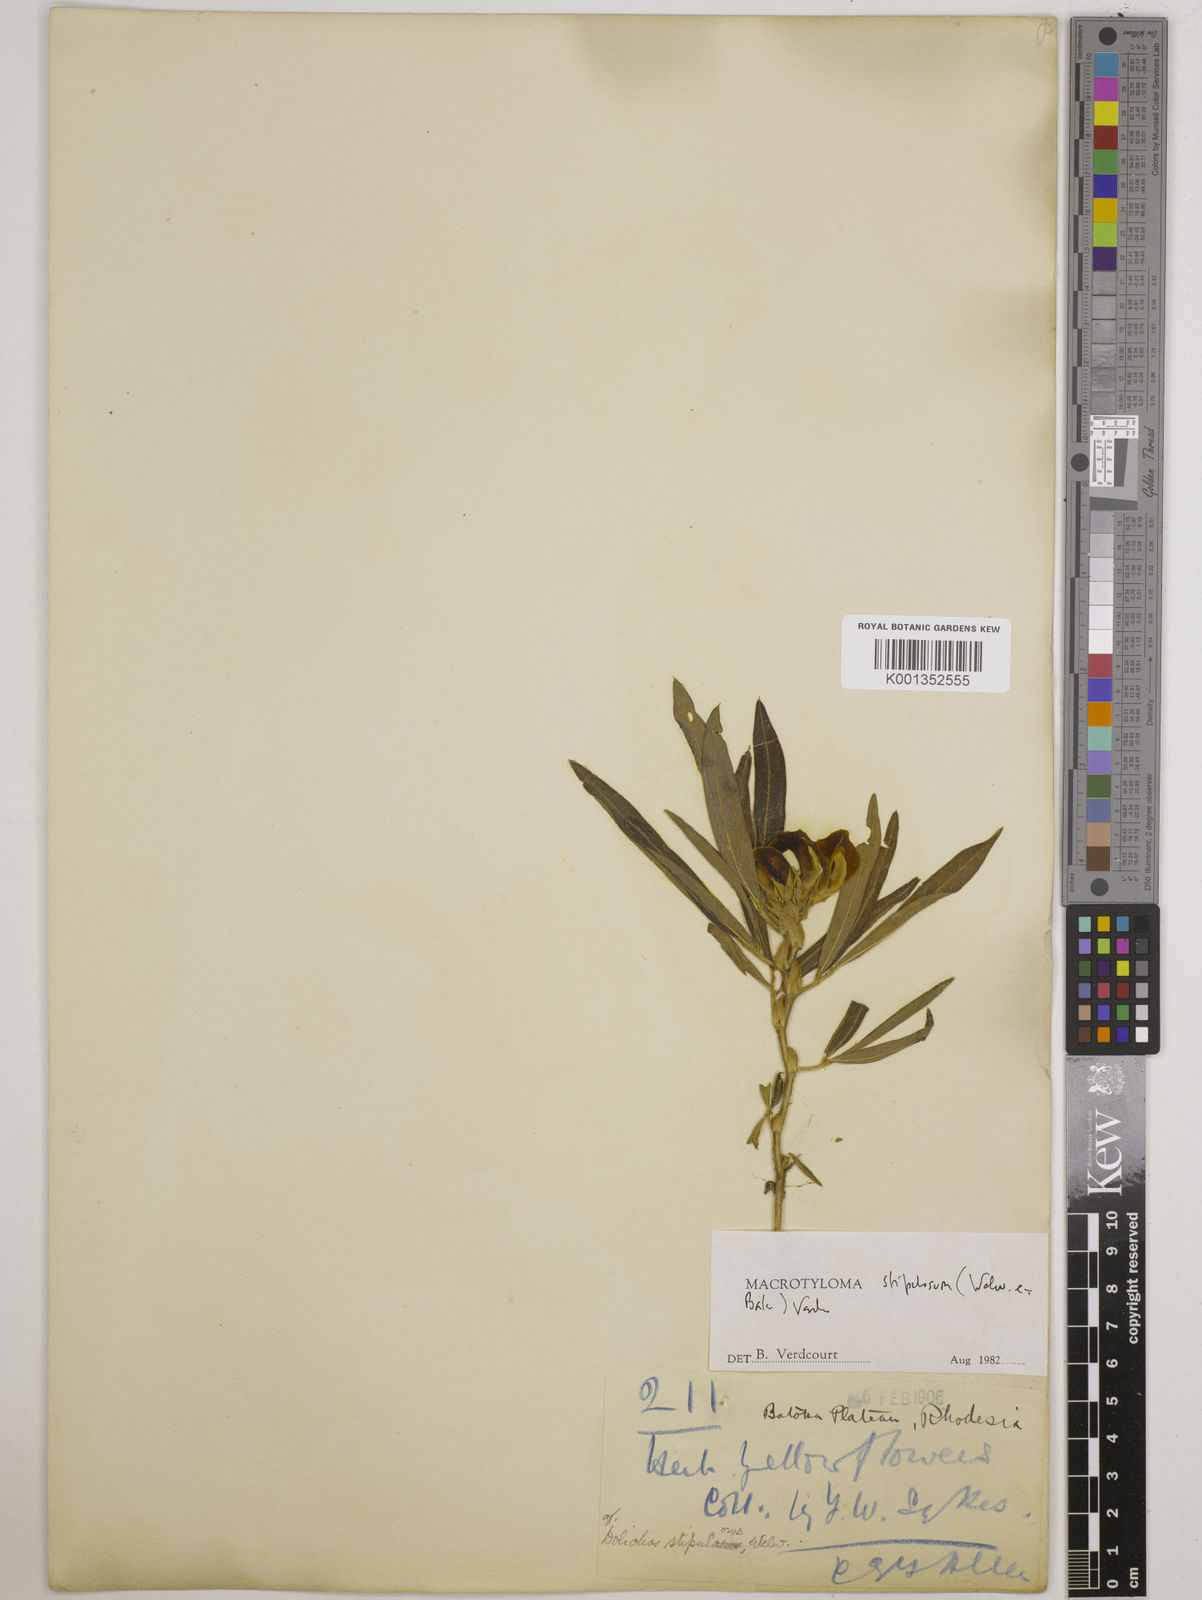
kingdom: Plantae
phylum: Tracheophyta
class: Magnoliopsida
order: Fabales
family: Fabaceae
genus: Macrotyloma
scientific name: Macrotyloma stipulosum
